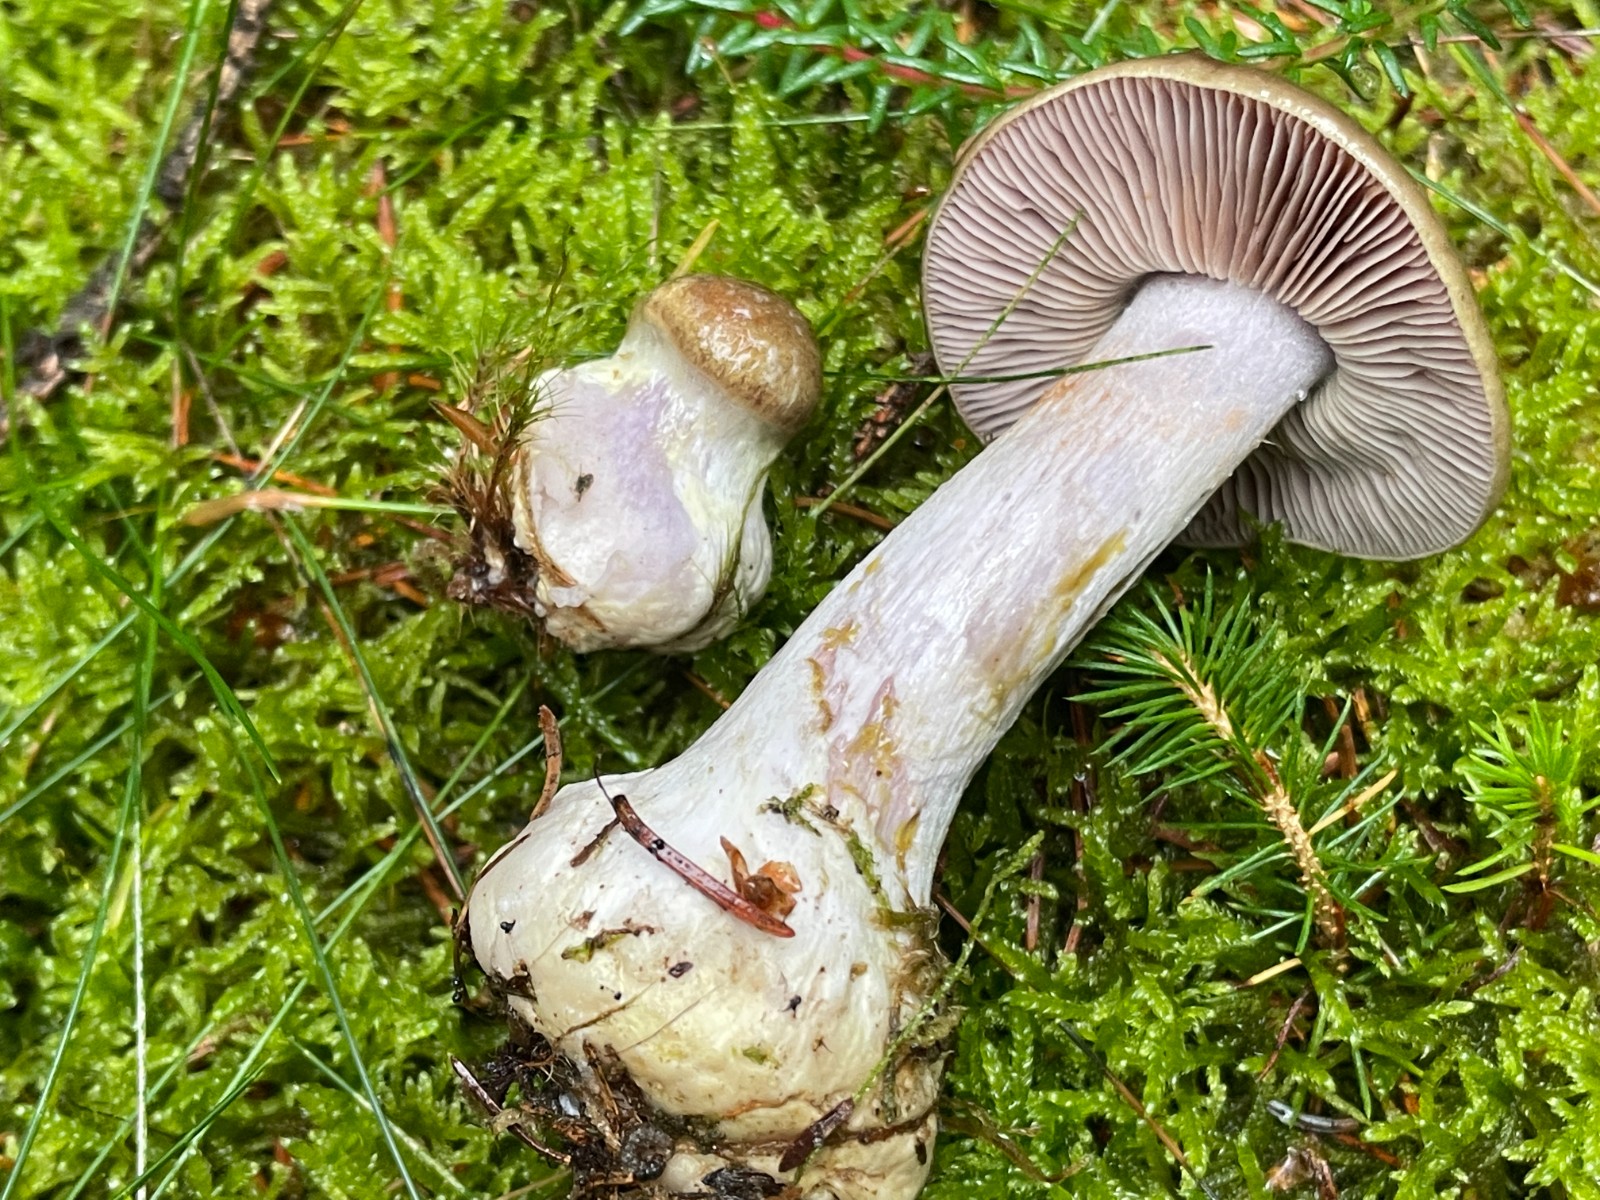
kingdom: Fungi
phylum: Basidiomycota
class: Agaricomycetes
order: Agaricales
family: Cortinariaceae
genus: Thaxterogaster
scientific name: Thaxterogaster sphagnophilus
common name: vandplettet slørhat
